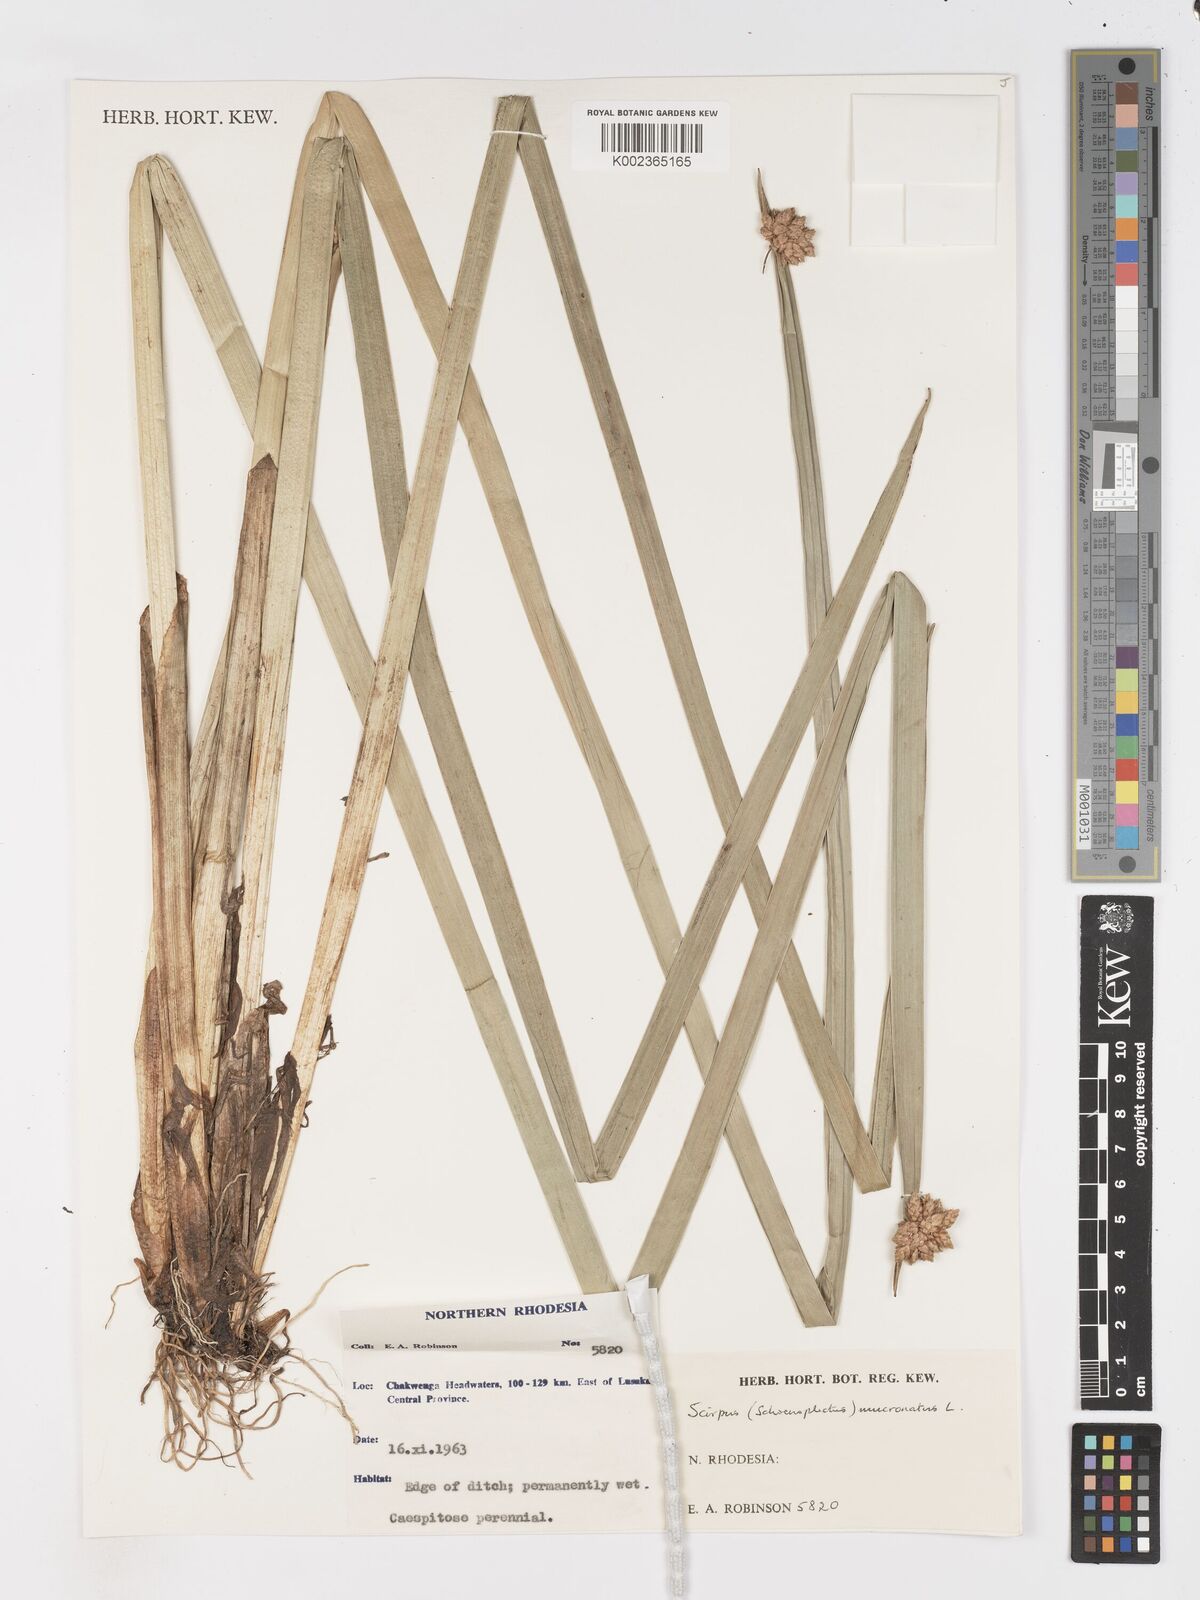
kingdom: Plantae
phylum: Tracheophyta
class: Liliopsida
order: Poales
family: Cyperaceae
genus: Schoenoplectiella
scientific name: Schoenoplectiella mucronata
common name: Bog bulrush
